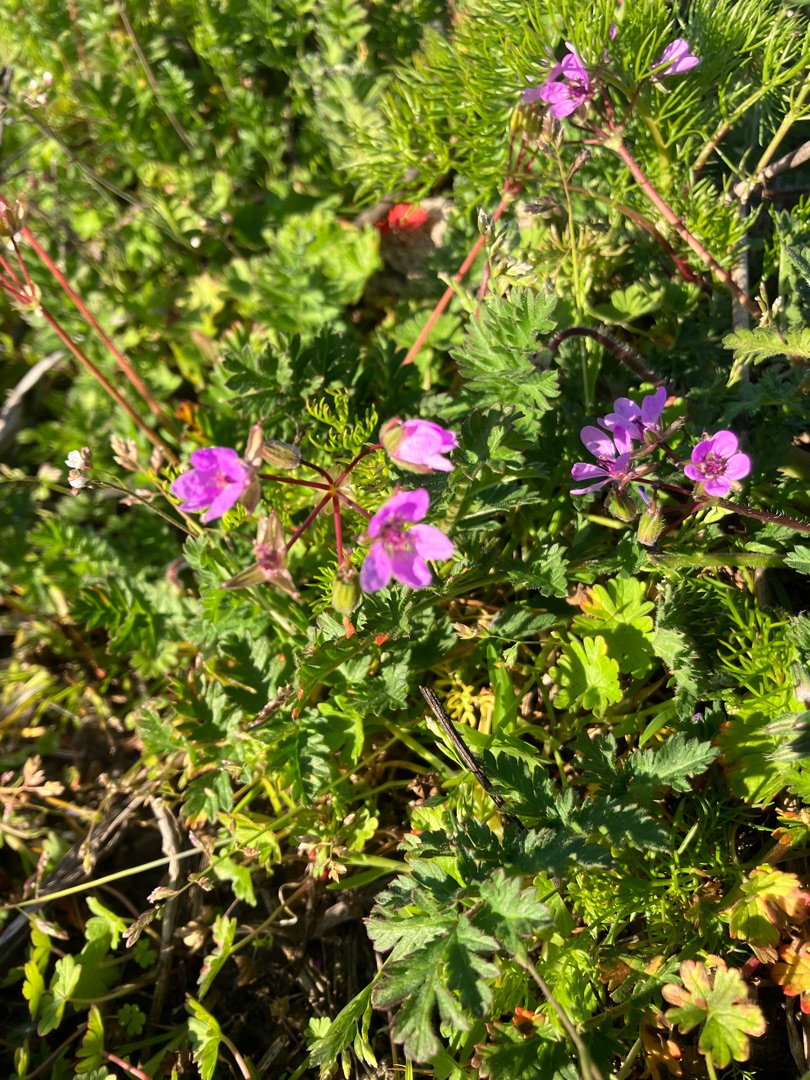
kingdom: Plantae
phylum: Tracheophyta
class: Magnoliopsida
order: Geraniales
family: Geraniaceae
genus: Erodium
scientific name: Erodium cicutarium
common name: Hejrenæb
